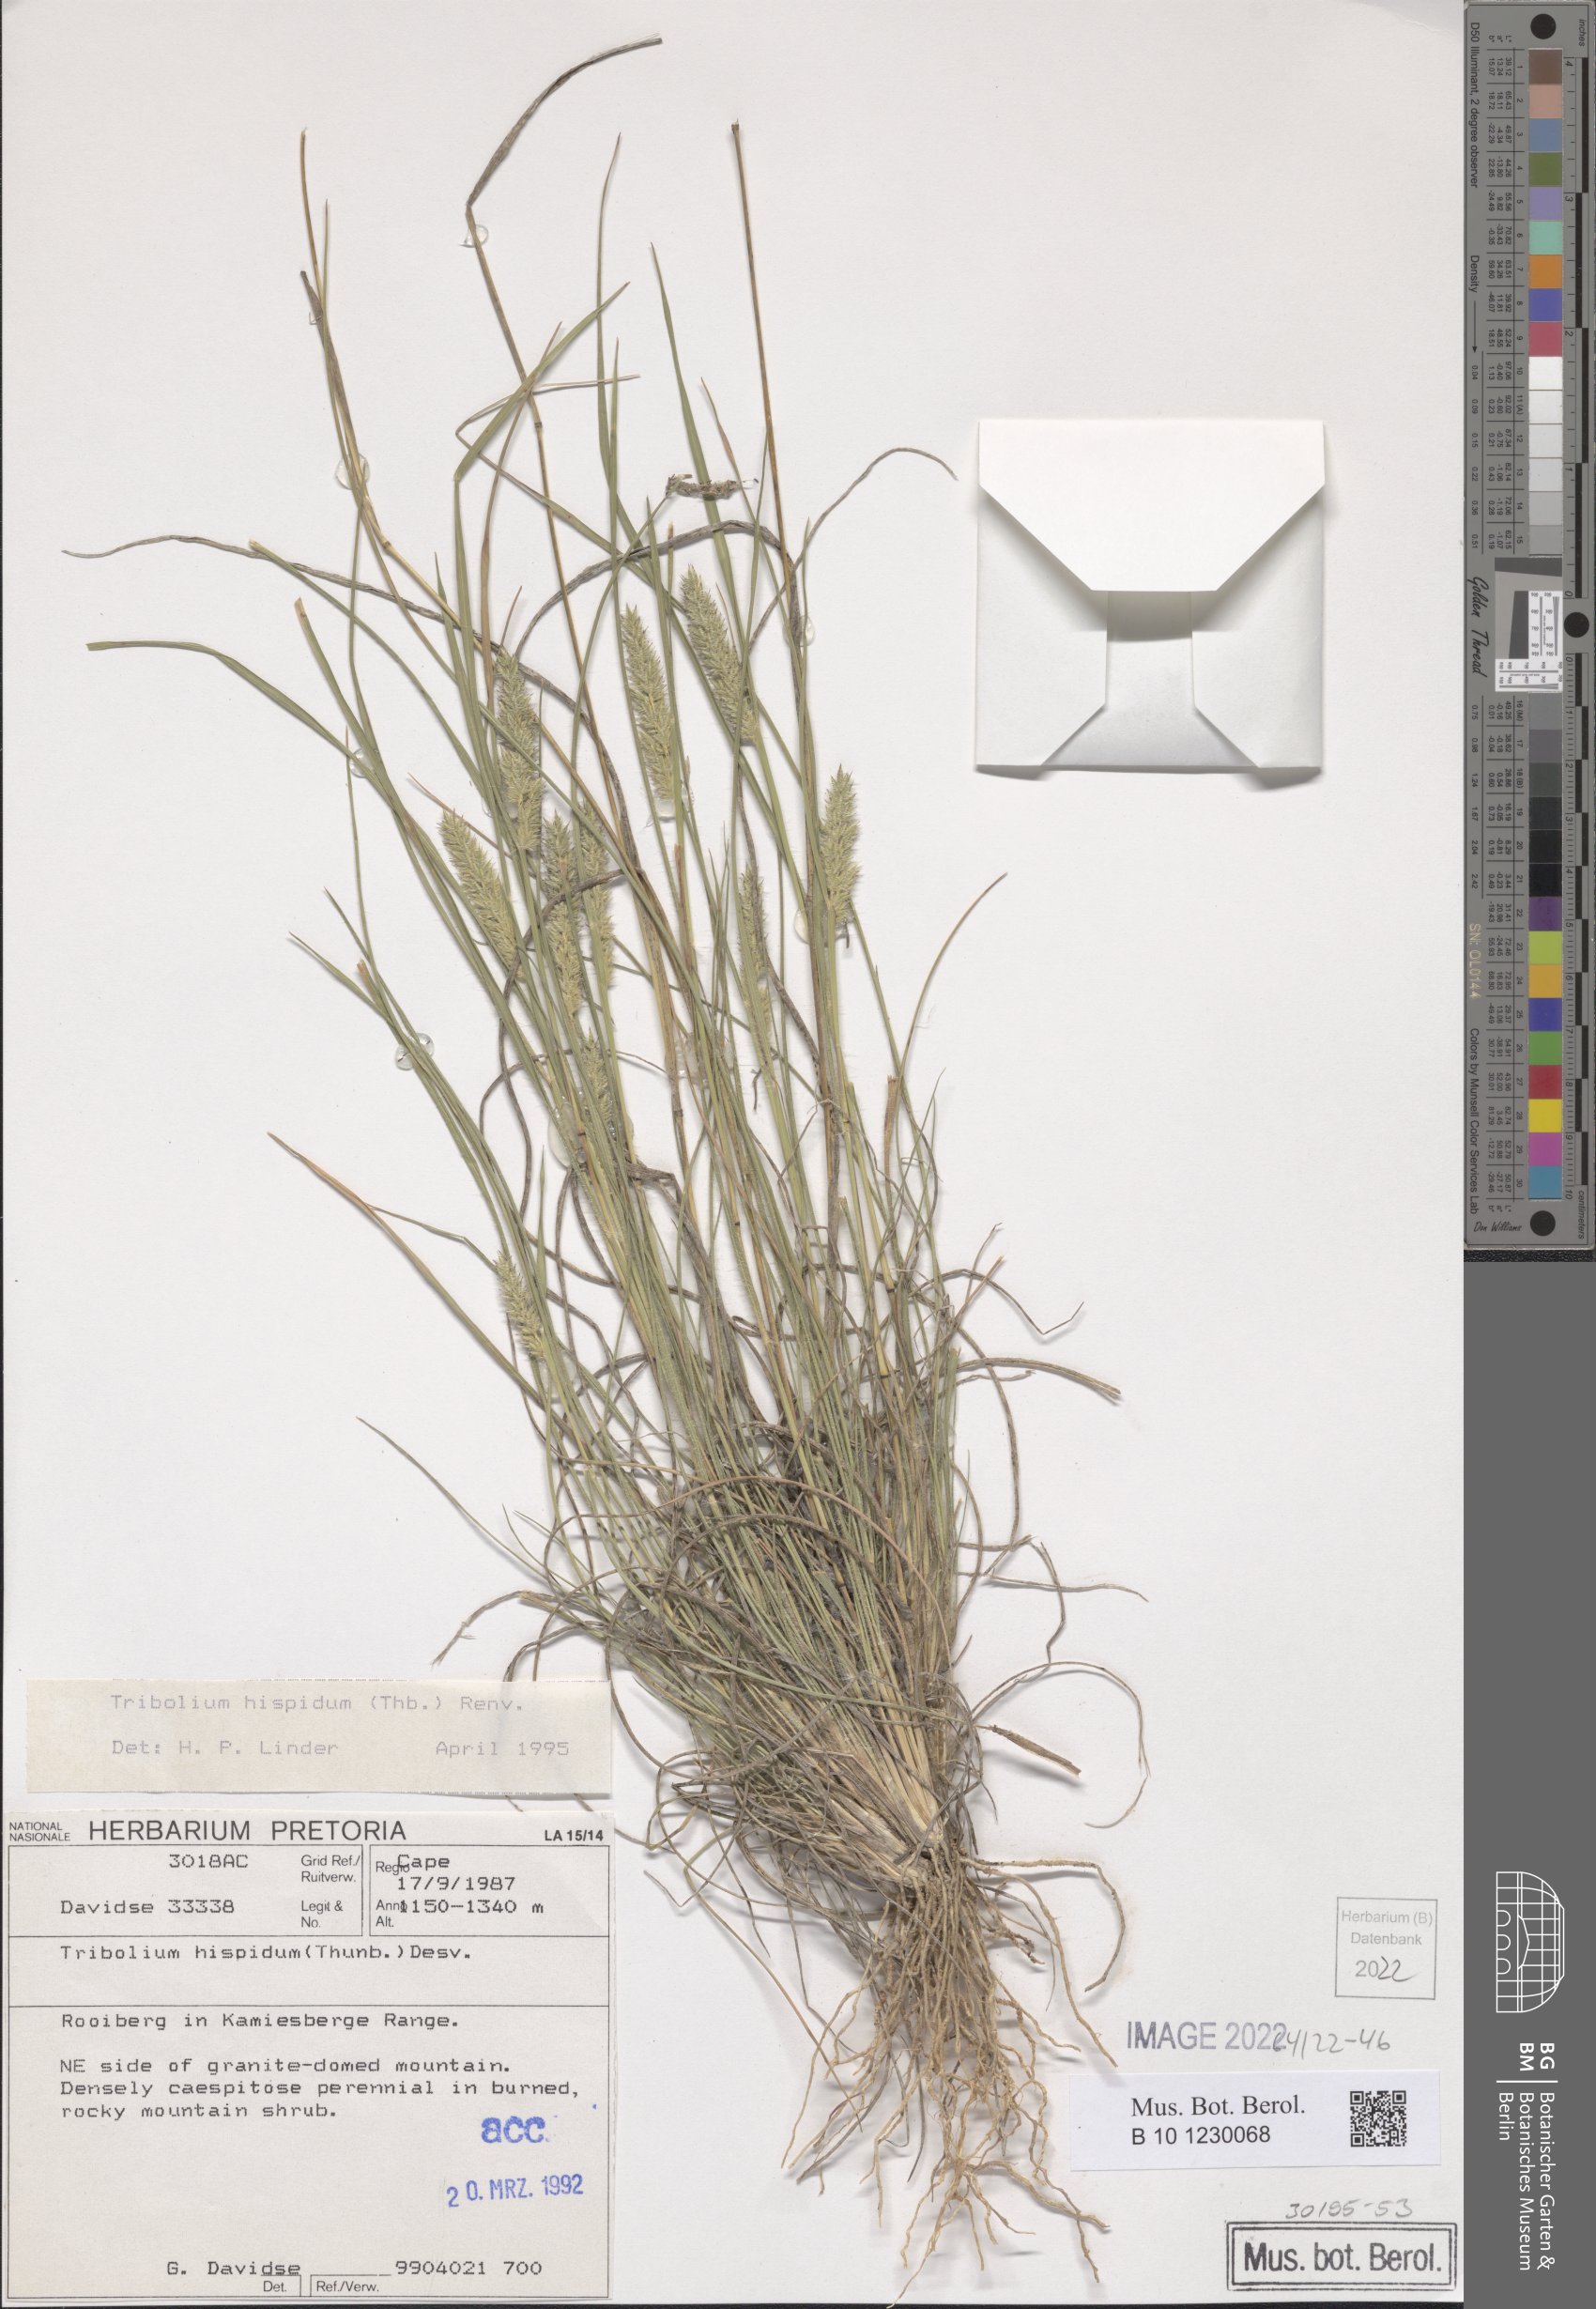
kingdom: Plantae
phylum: Tracheophyta
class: Liliopsida
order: Poales
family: Poaceae
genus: Tribolium
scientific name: Tribolium hispidum
